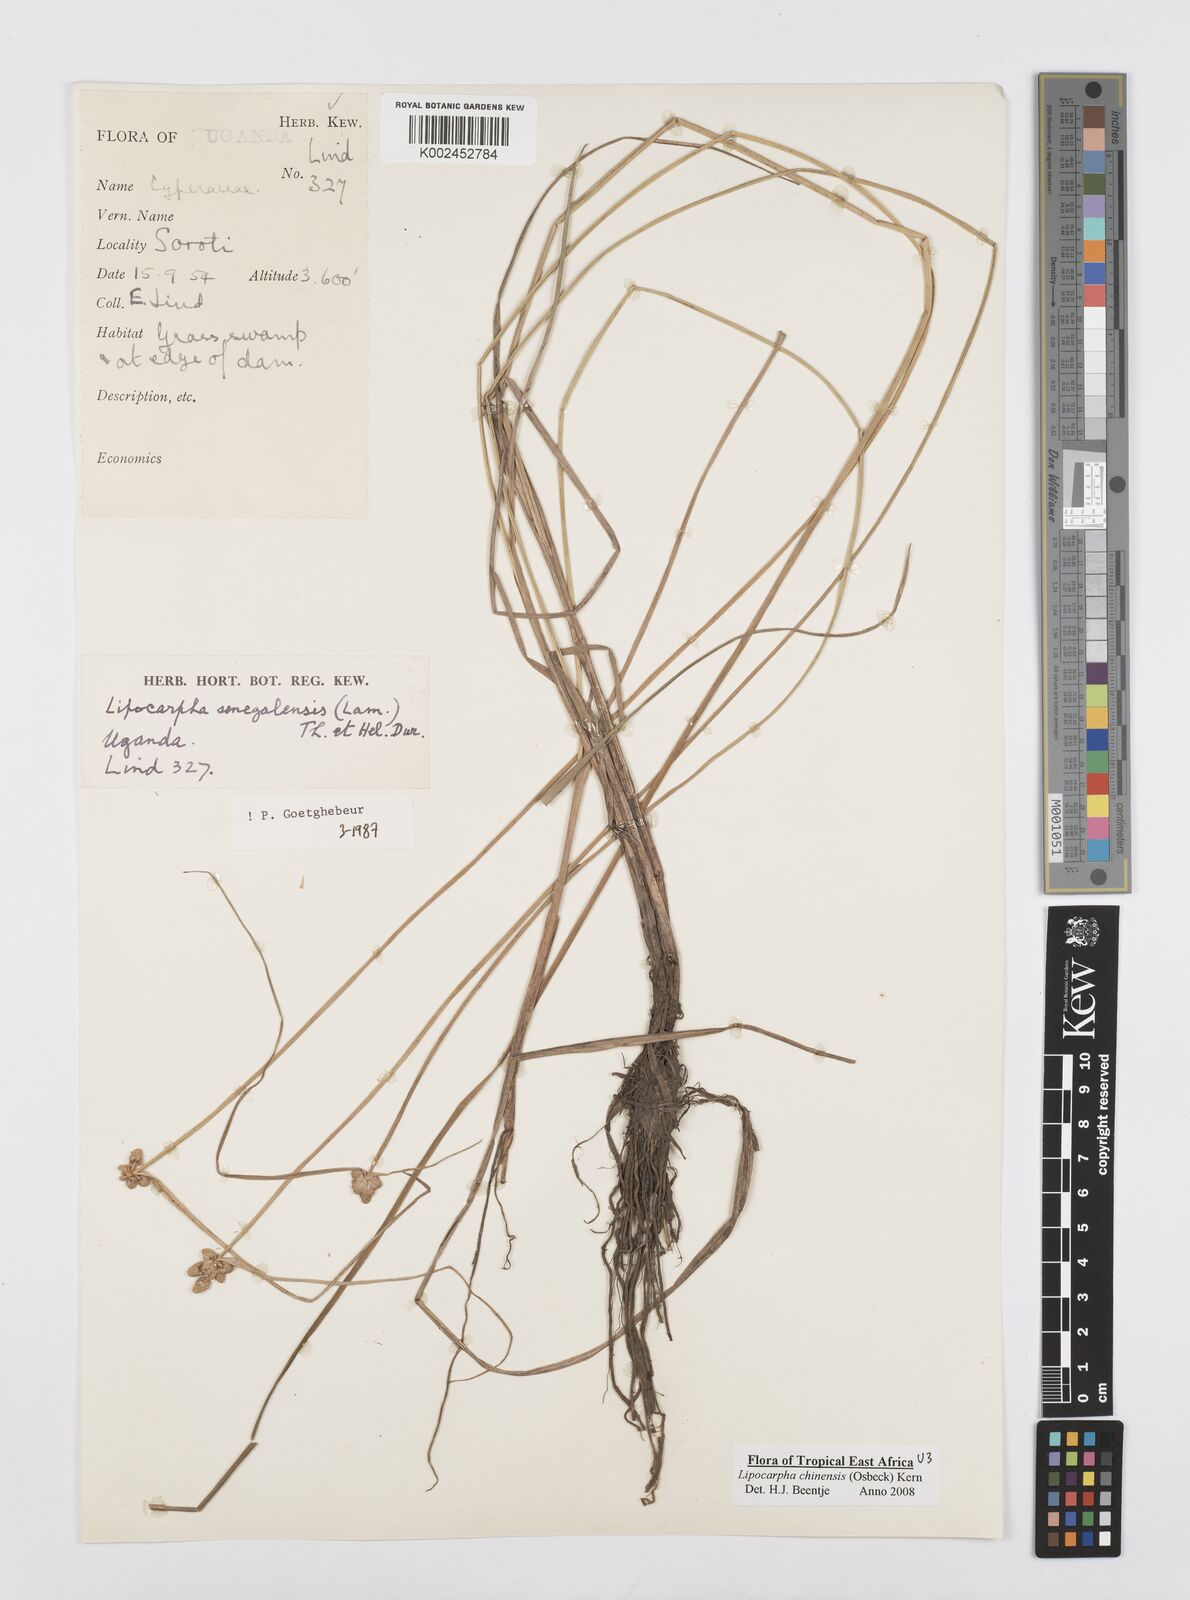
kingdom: Plantae
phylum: Tracheophyta
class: Liliopsida
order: Poales
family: Cyperaceae
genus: Cyperus
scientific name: Cyperus albescens
